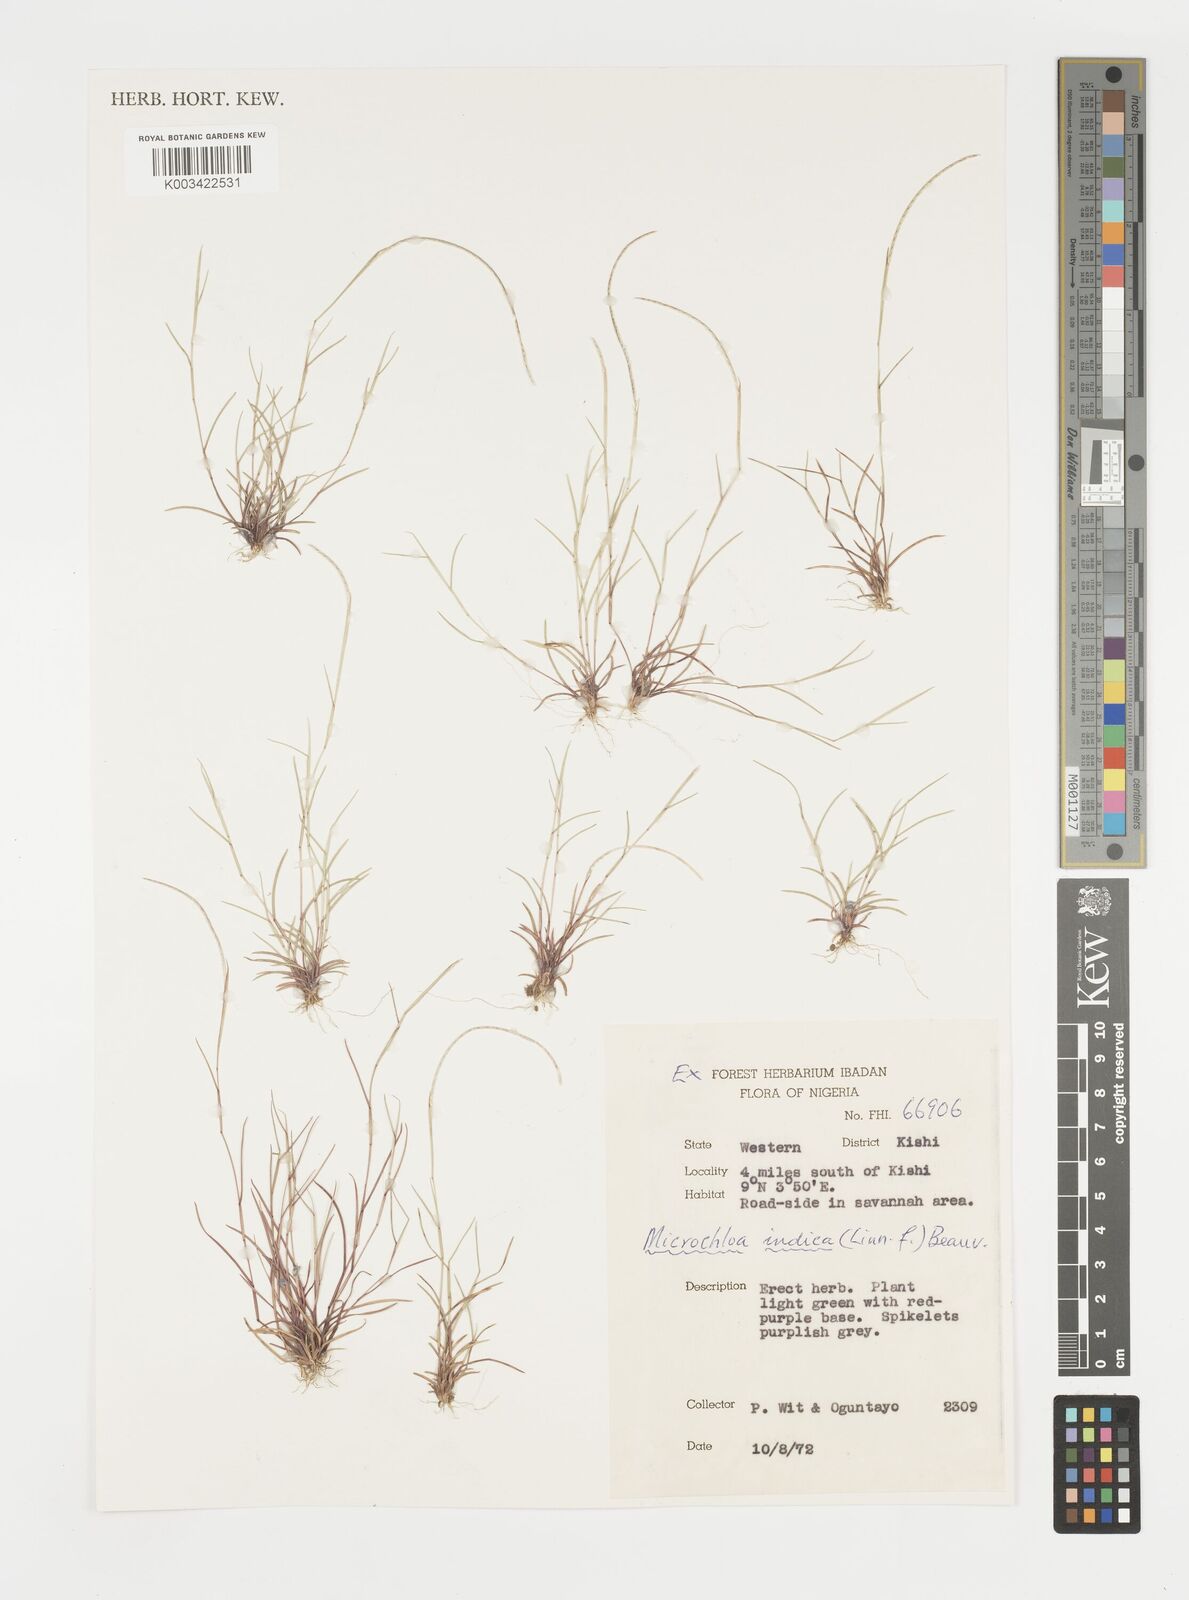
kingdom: Plantae
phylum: Tracheophyta
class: Liliopsida
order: Poales
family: Poaceae
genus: Microchloa
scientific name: Microchloa indica
